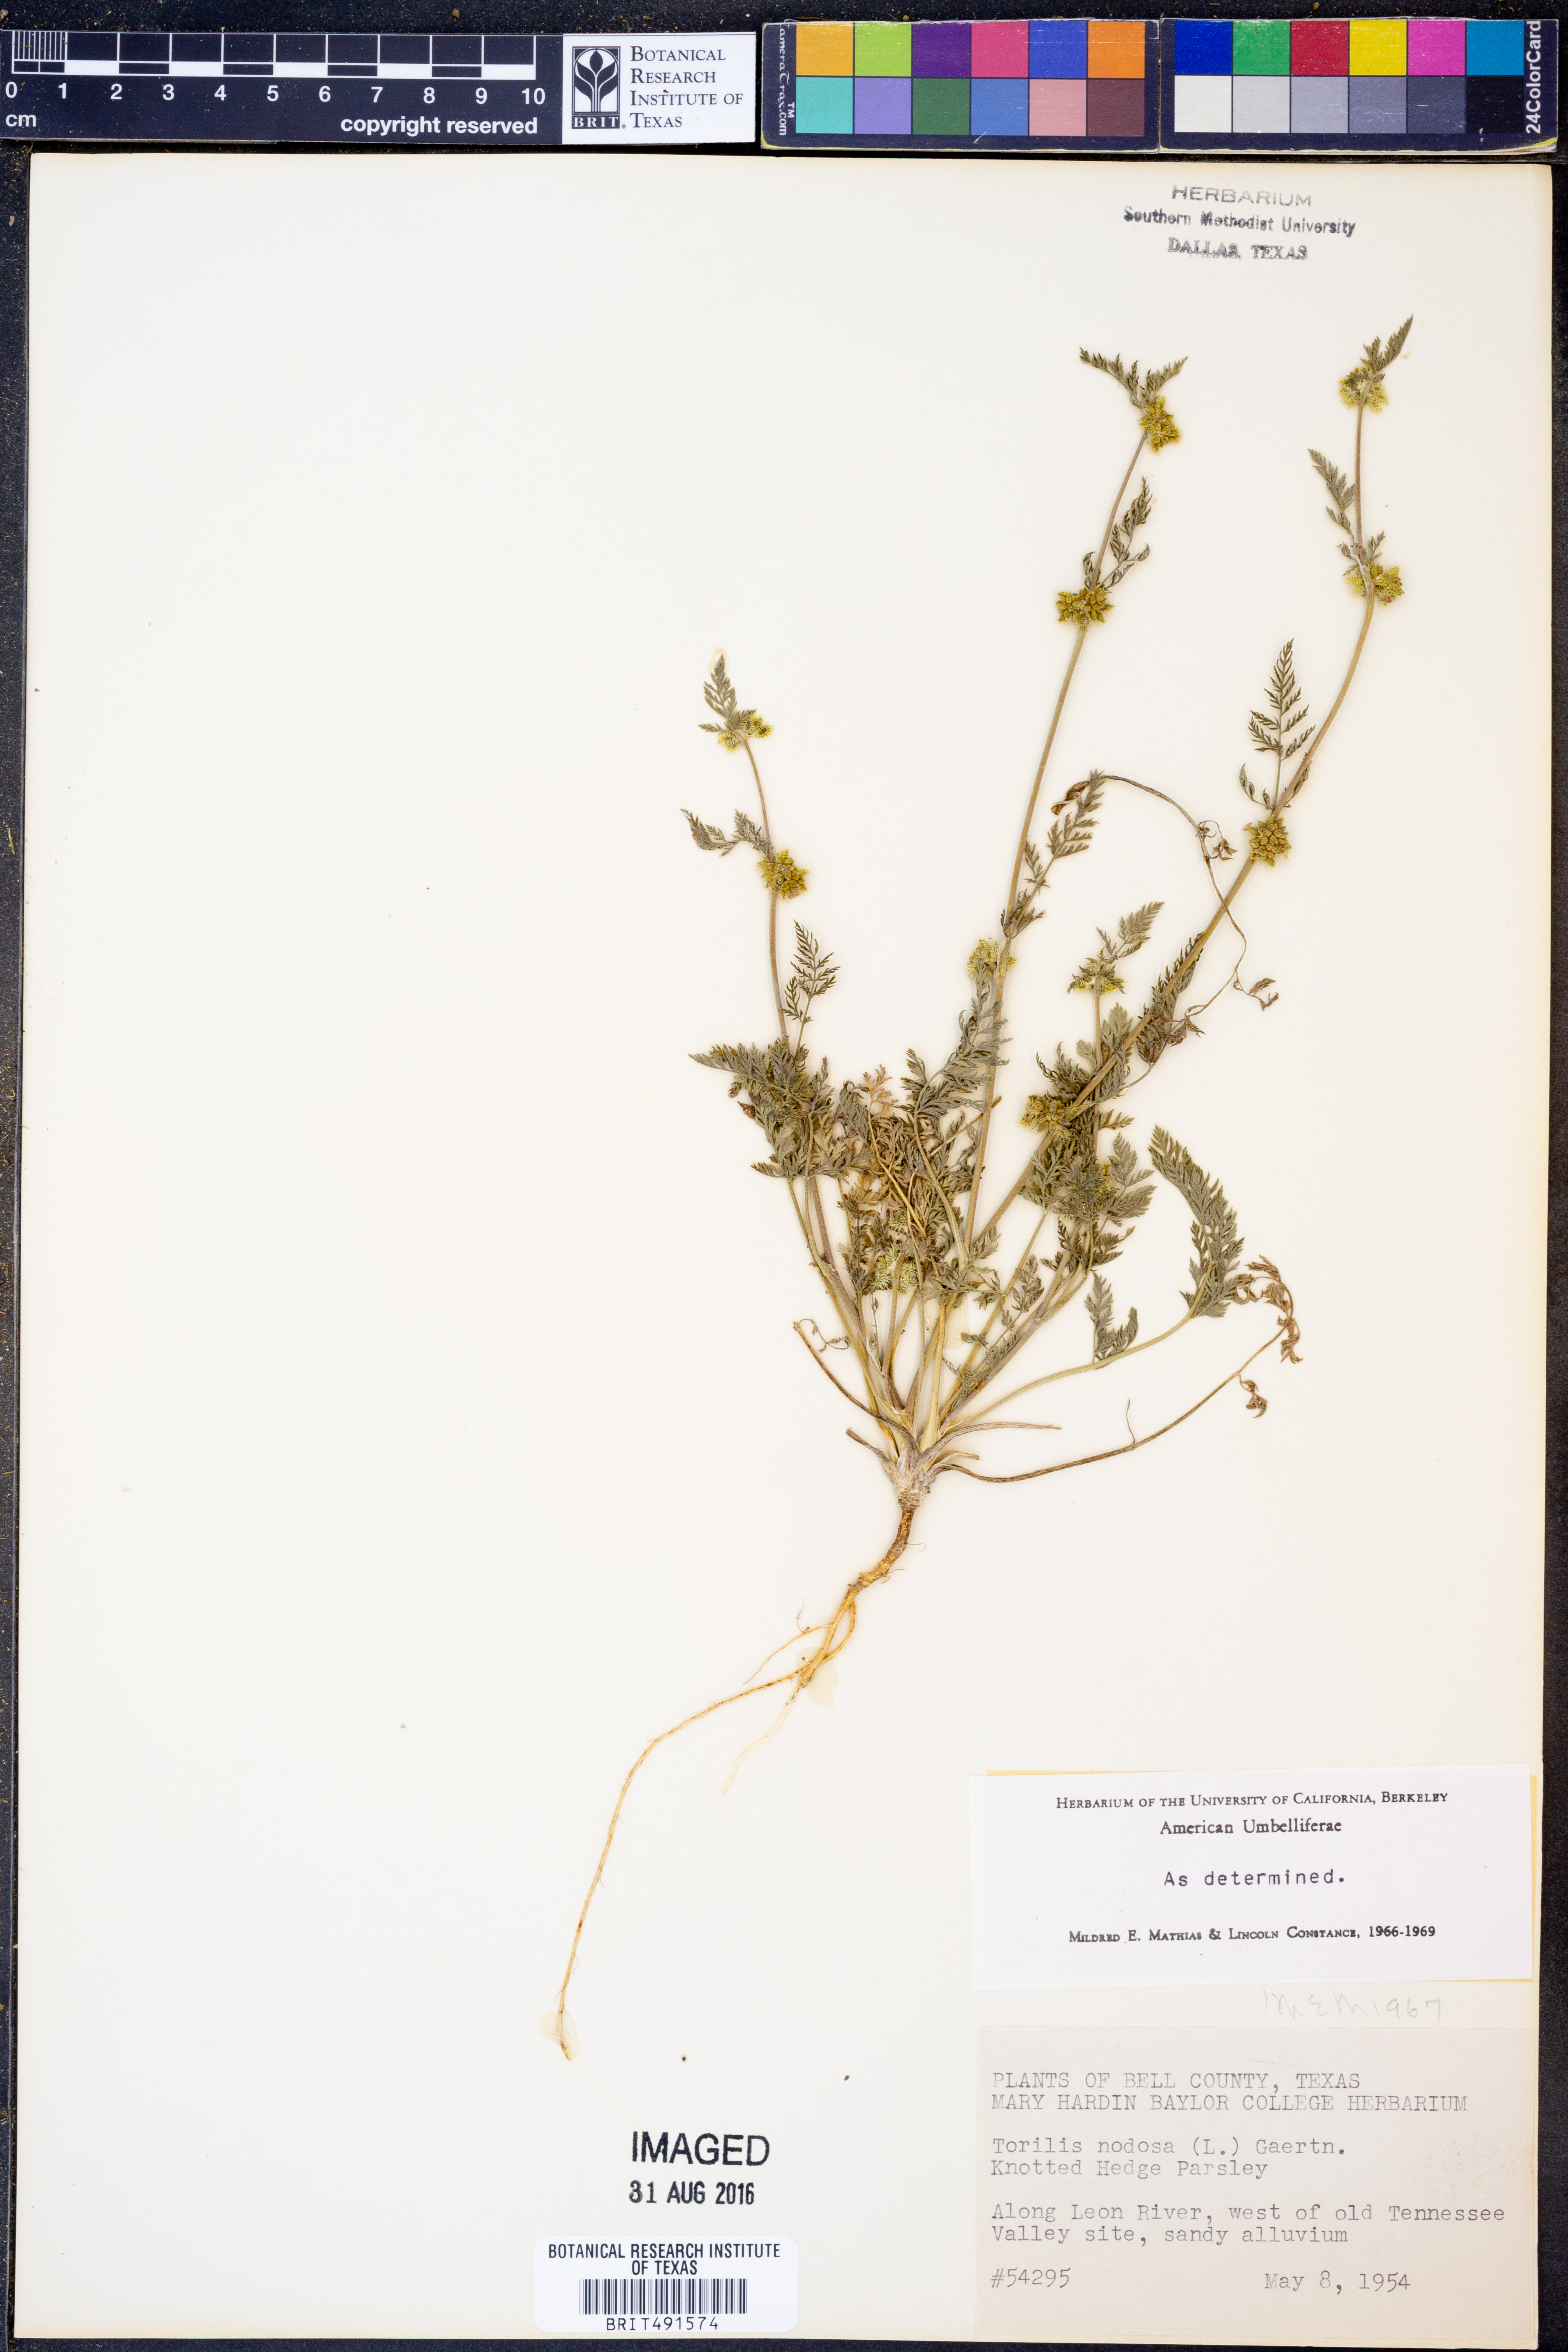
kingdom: Plantae
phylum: Tracheophyta
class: Magnoliopsida
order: Apiales
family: Apiaceae
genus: Torilis
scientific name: Torilis nodosa
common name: Knotted hedge-parsley
